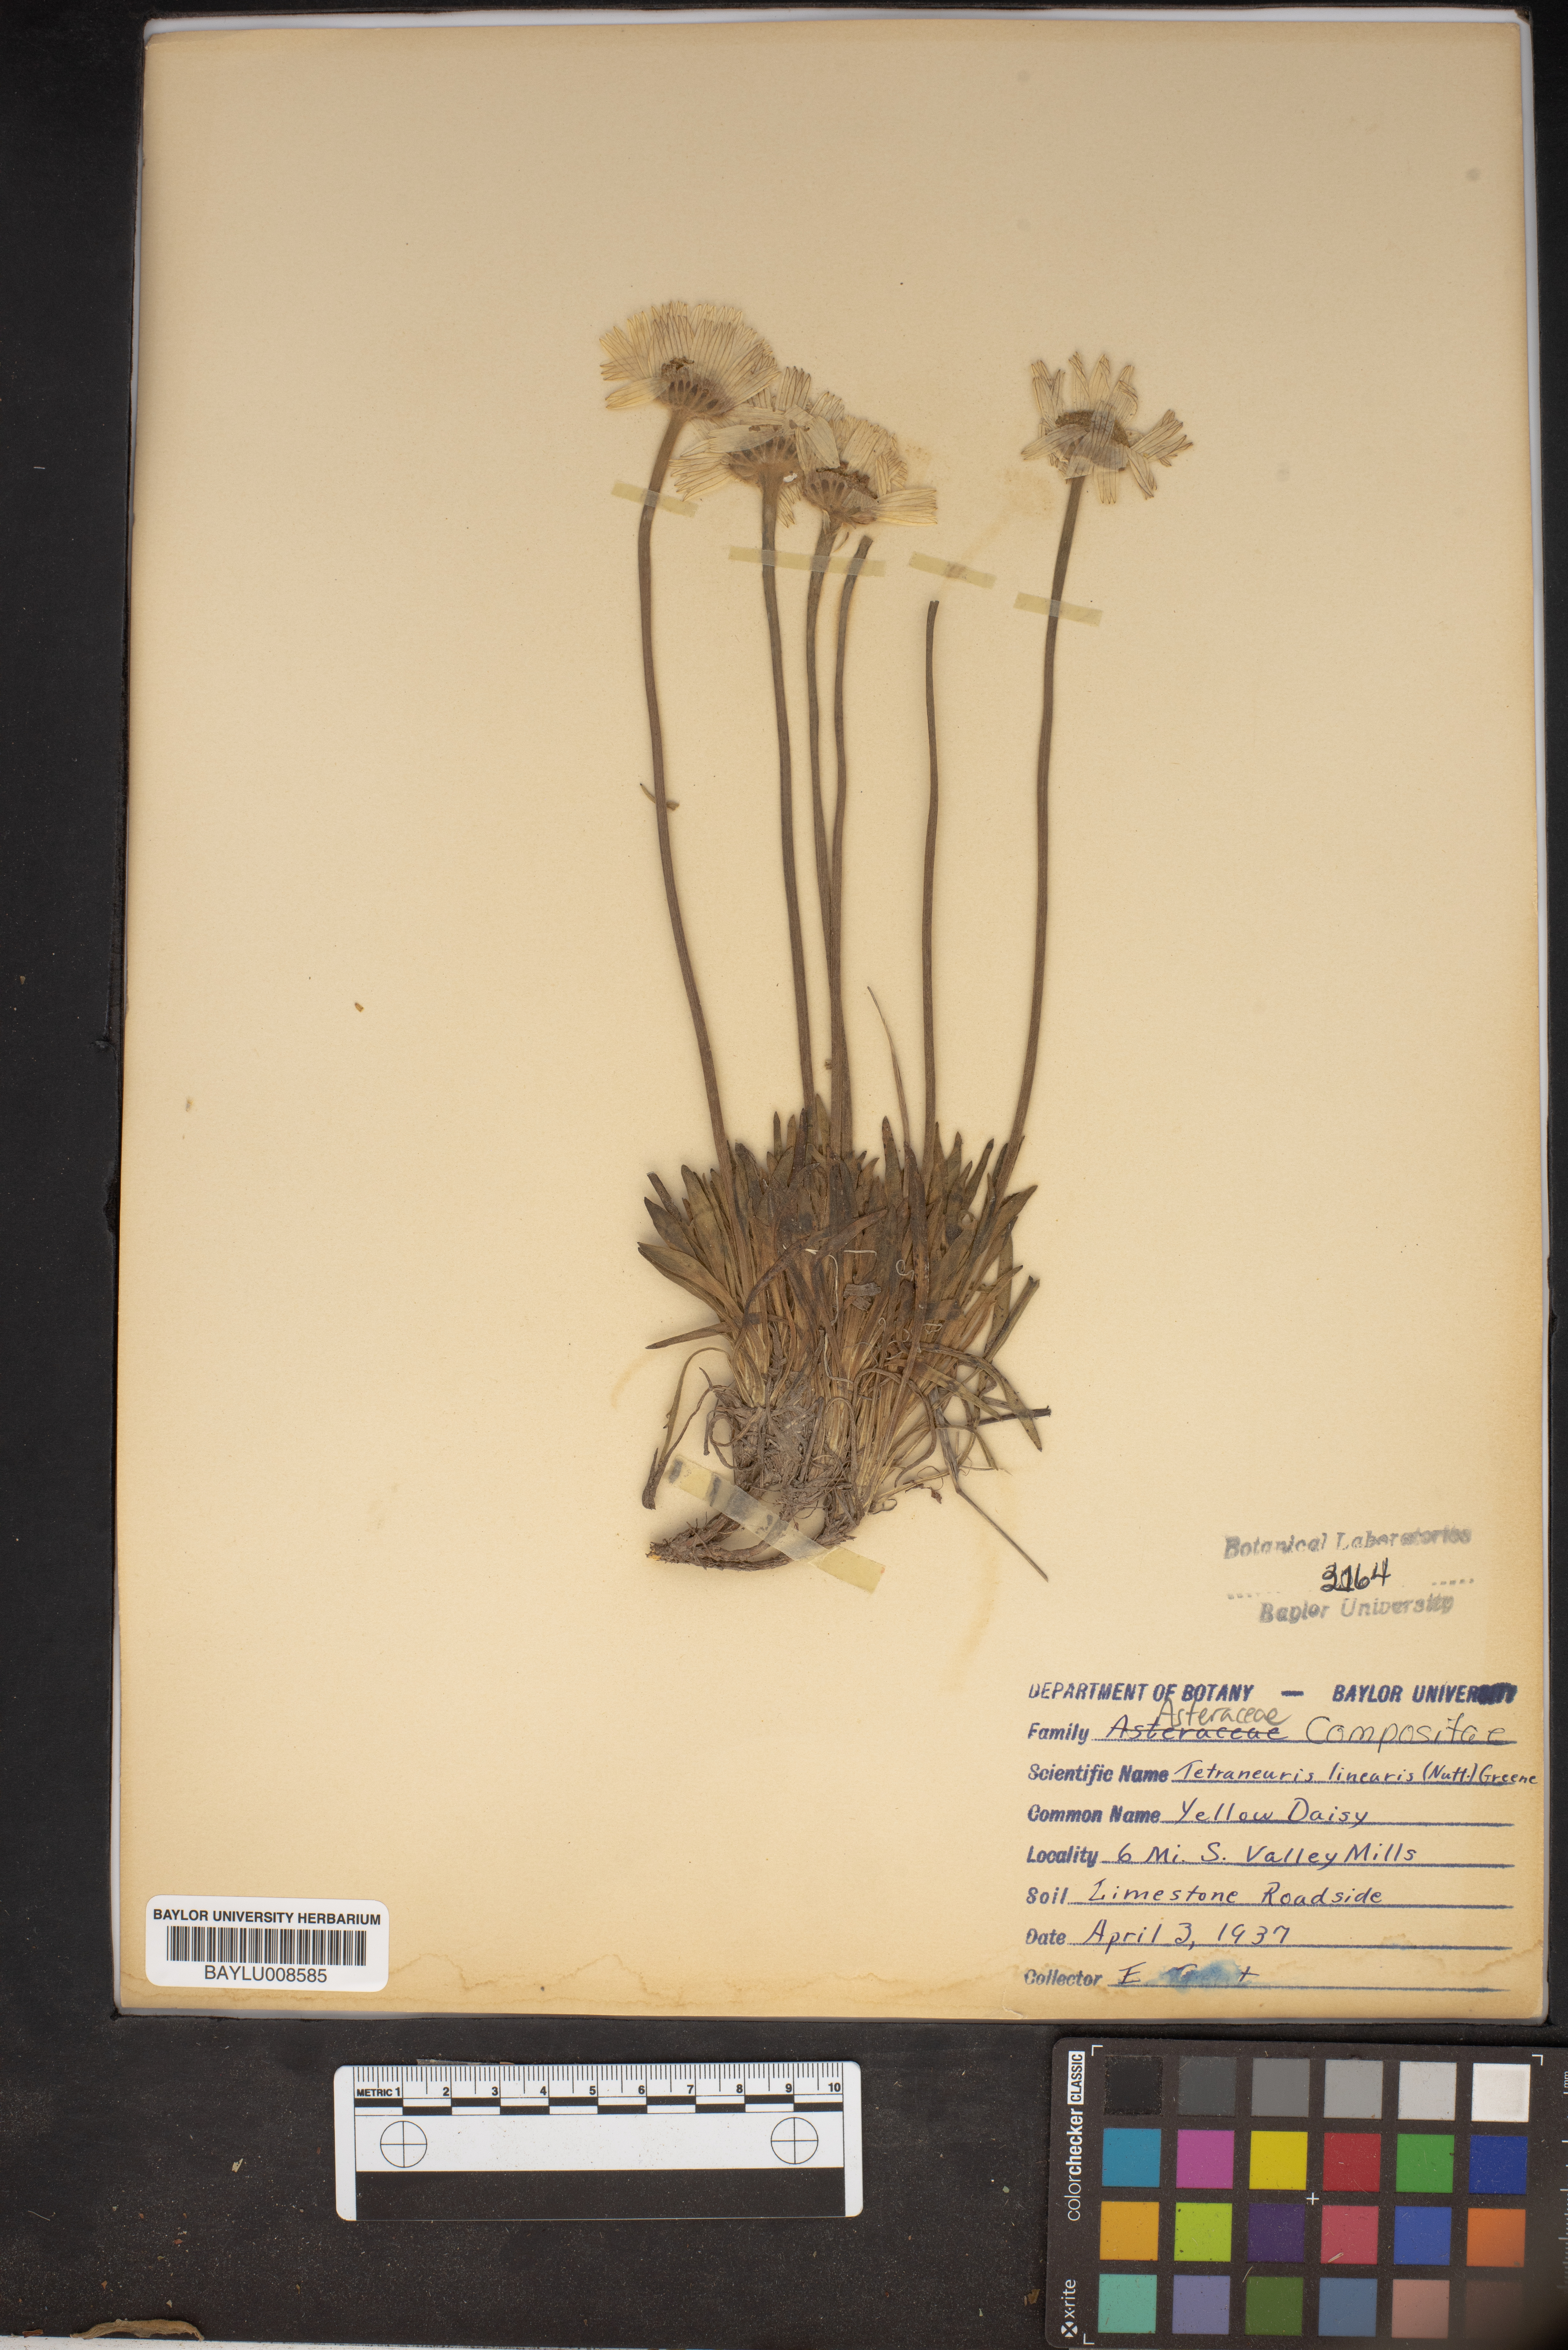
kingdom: Plantae
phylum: Tracheophyta
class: Magnoliopsida
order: Asterales
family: Asteraceae
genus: Tetraneuris
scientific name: Tetraneuris scaposa
